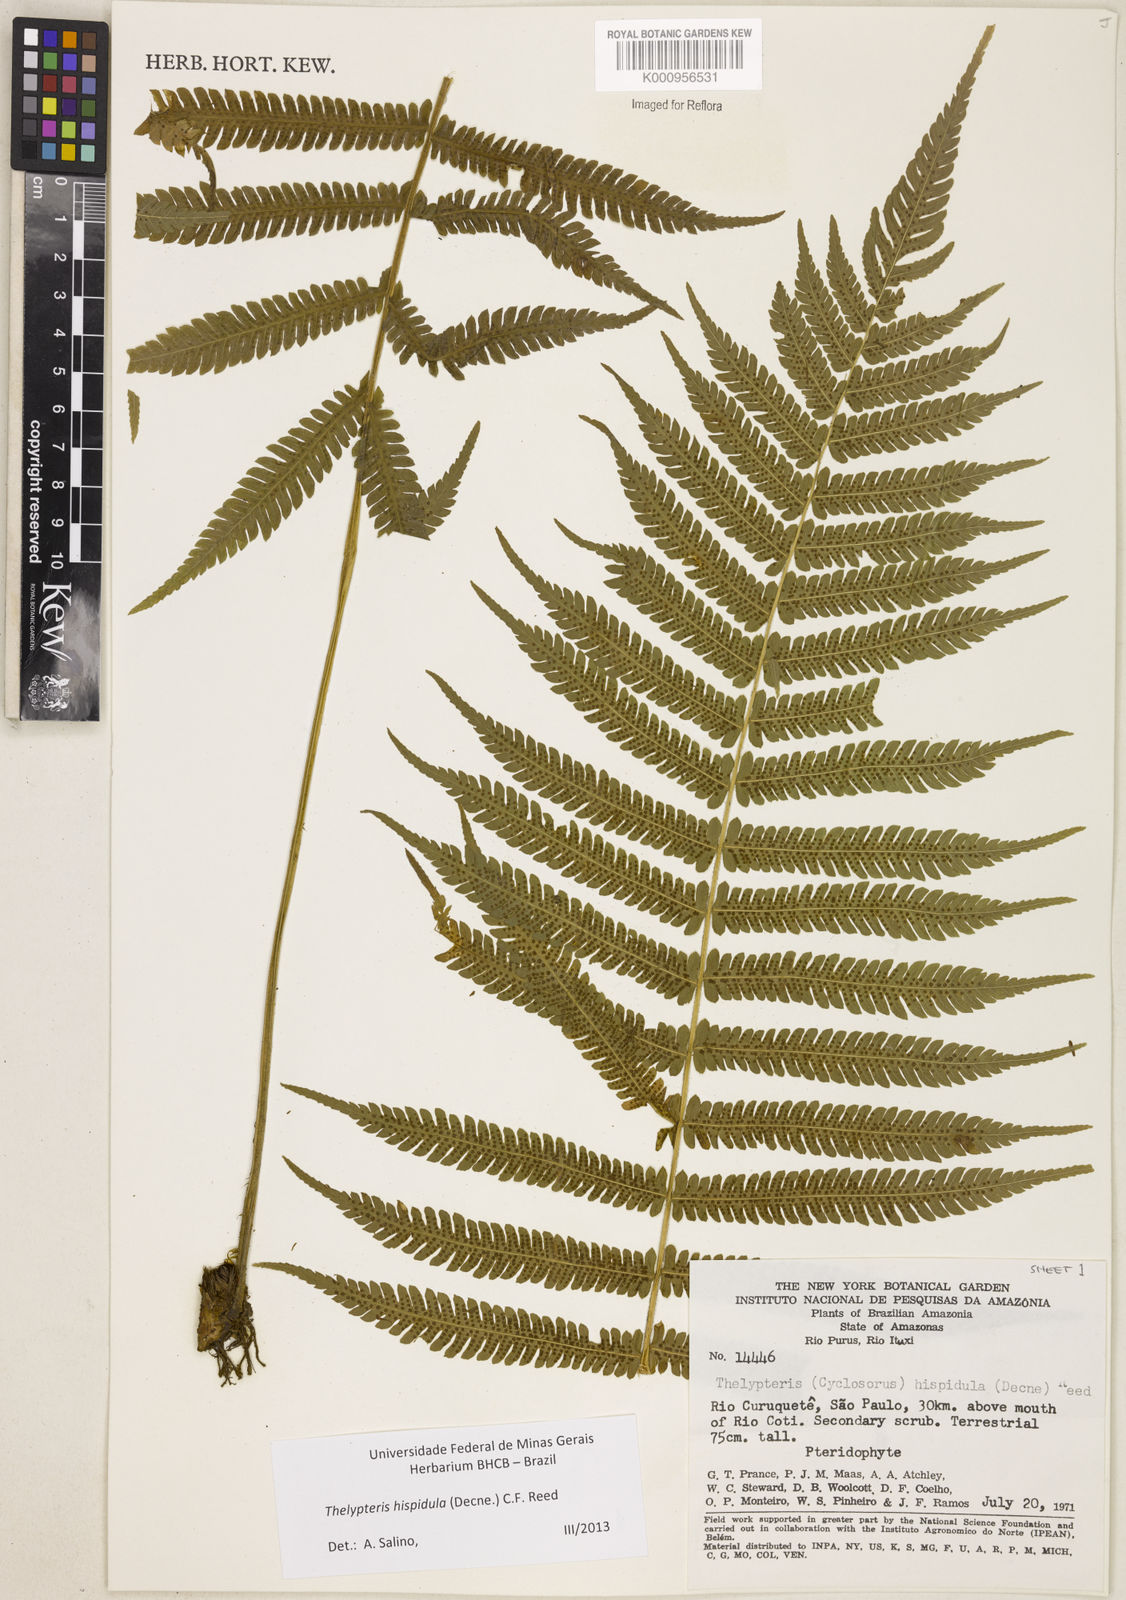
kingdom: Plantae
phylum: Tracheophyta
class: Polypodiopsida
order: Polypodiales
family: Thelypteridaceae
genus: Christella
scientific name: Christella hispidula
